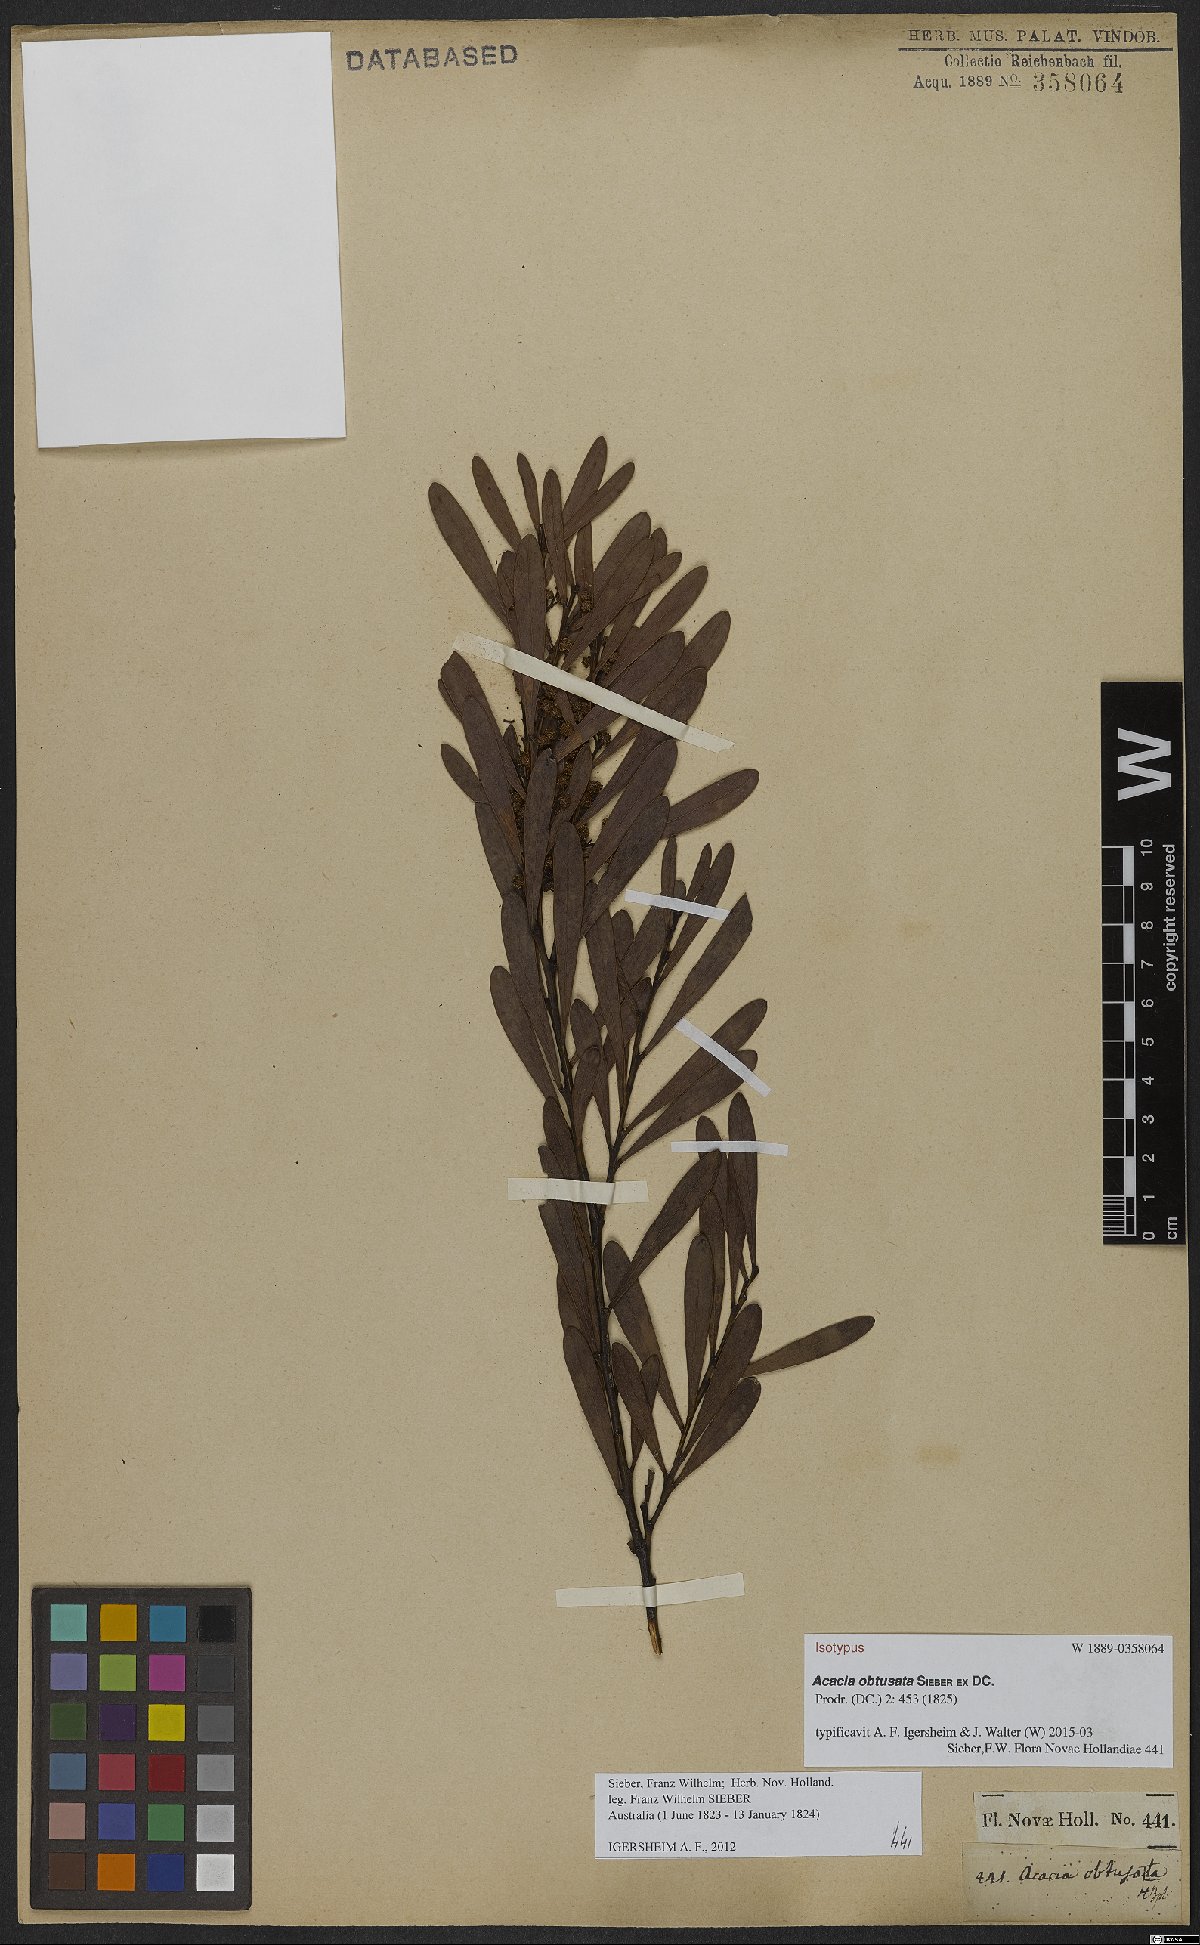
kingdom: Plantae
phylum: Tracheophyta
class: Magnoliopsida
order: Fabales
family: Fabaceae
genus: Acacia
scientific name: Acacia obtusata
